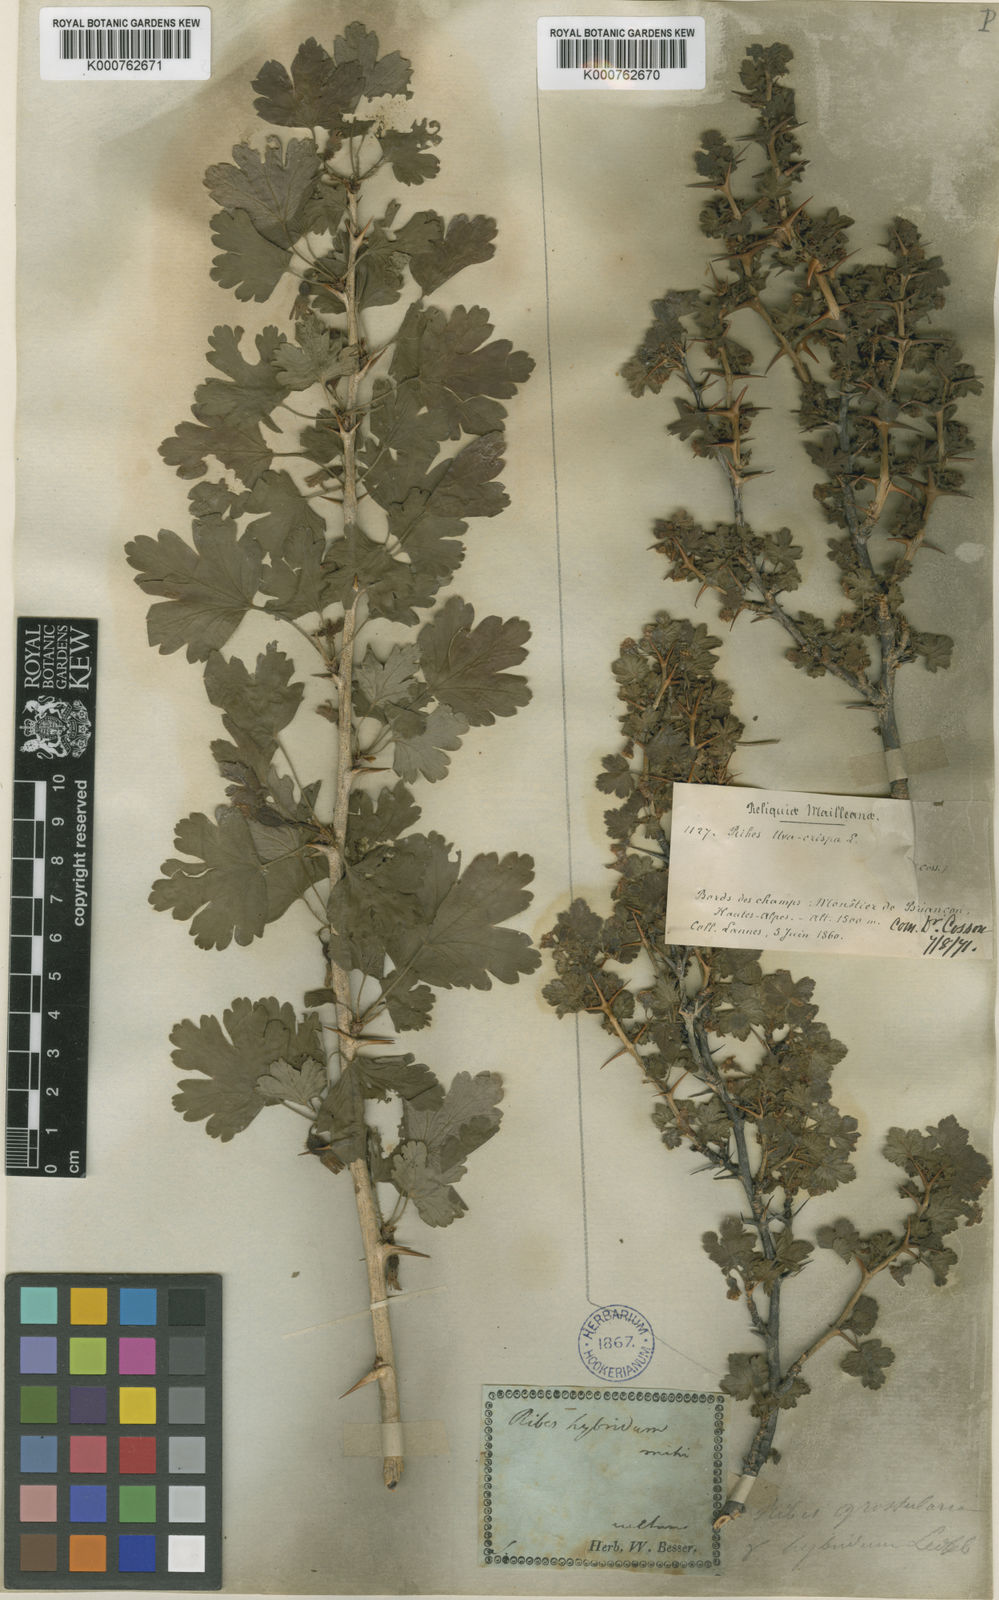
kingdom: Plantae
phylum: Tracheophyta
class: Magnoliopsida
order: Saxifragales
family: Grossulariaceae
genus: Ribes
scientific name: Ribes uva-crispa
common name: Gooseberry
